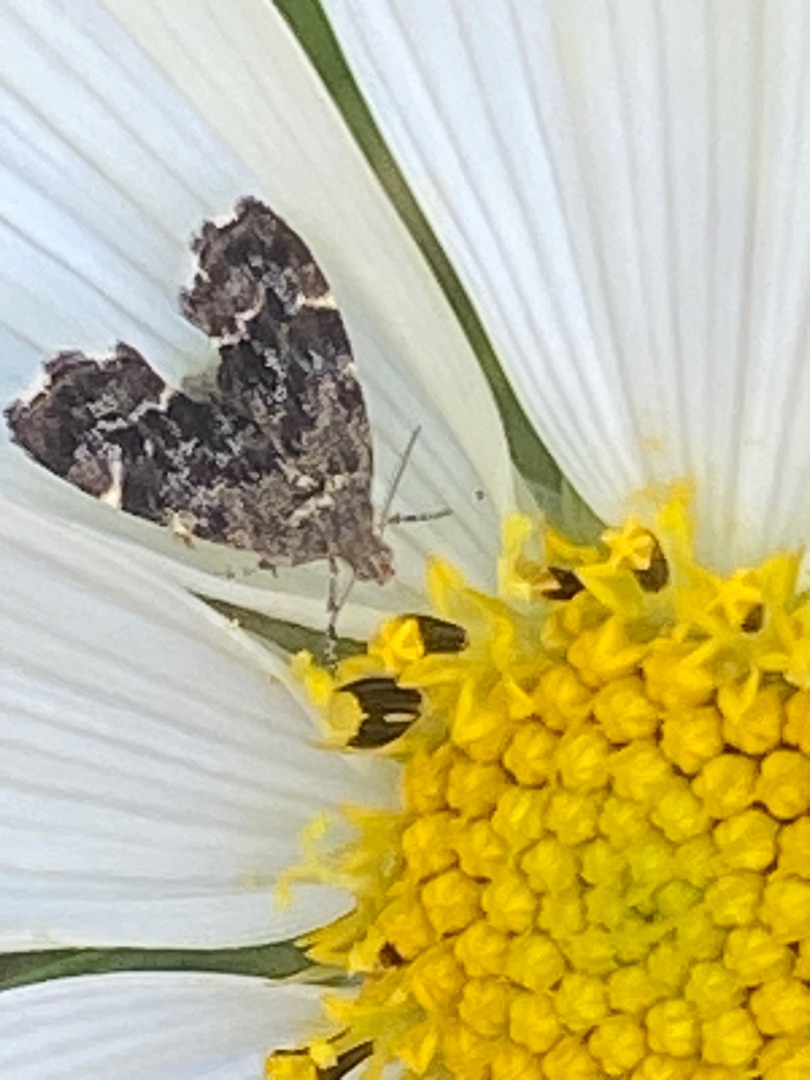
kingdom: Animalia
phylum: Arthropoda
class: Insecta
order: Lepidoptera
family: Choreutidae
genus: Anthophila
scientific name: Anthophila fabriciana
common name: Bredvinget nældevikler
